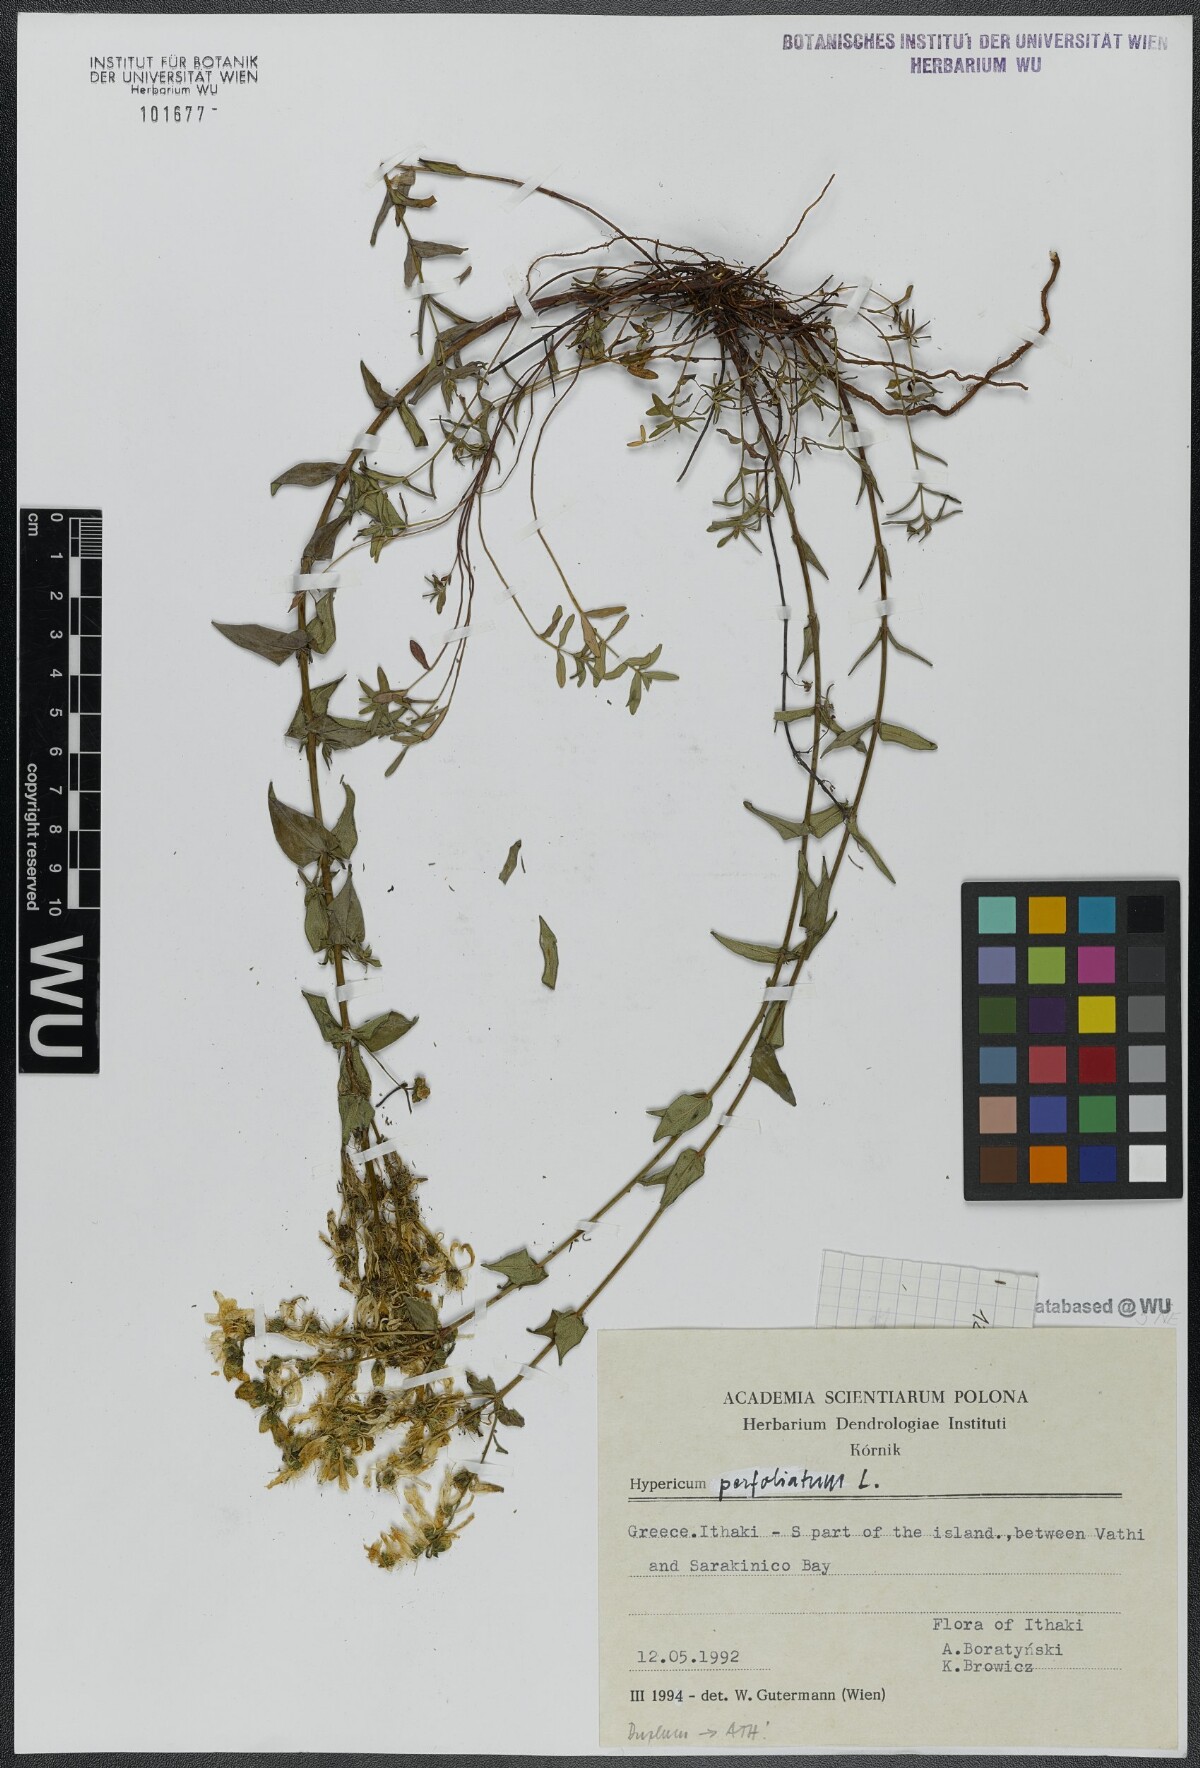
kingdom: Plantae
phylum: Tracheophyta
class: Magnoliopsida
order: Malpighiales
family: Hypericaceae
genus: Hypericum
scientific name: Hypericum perfoliatum
